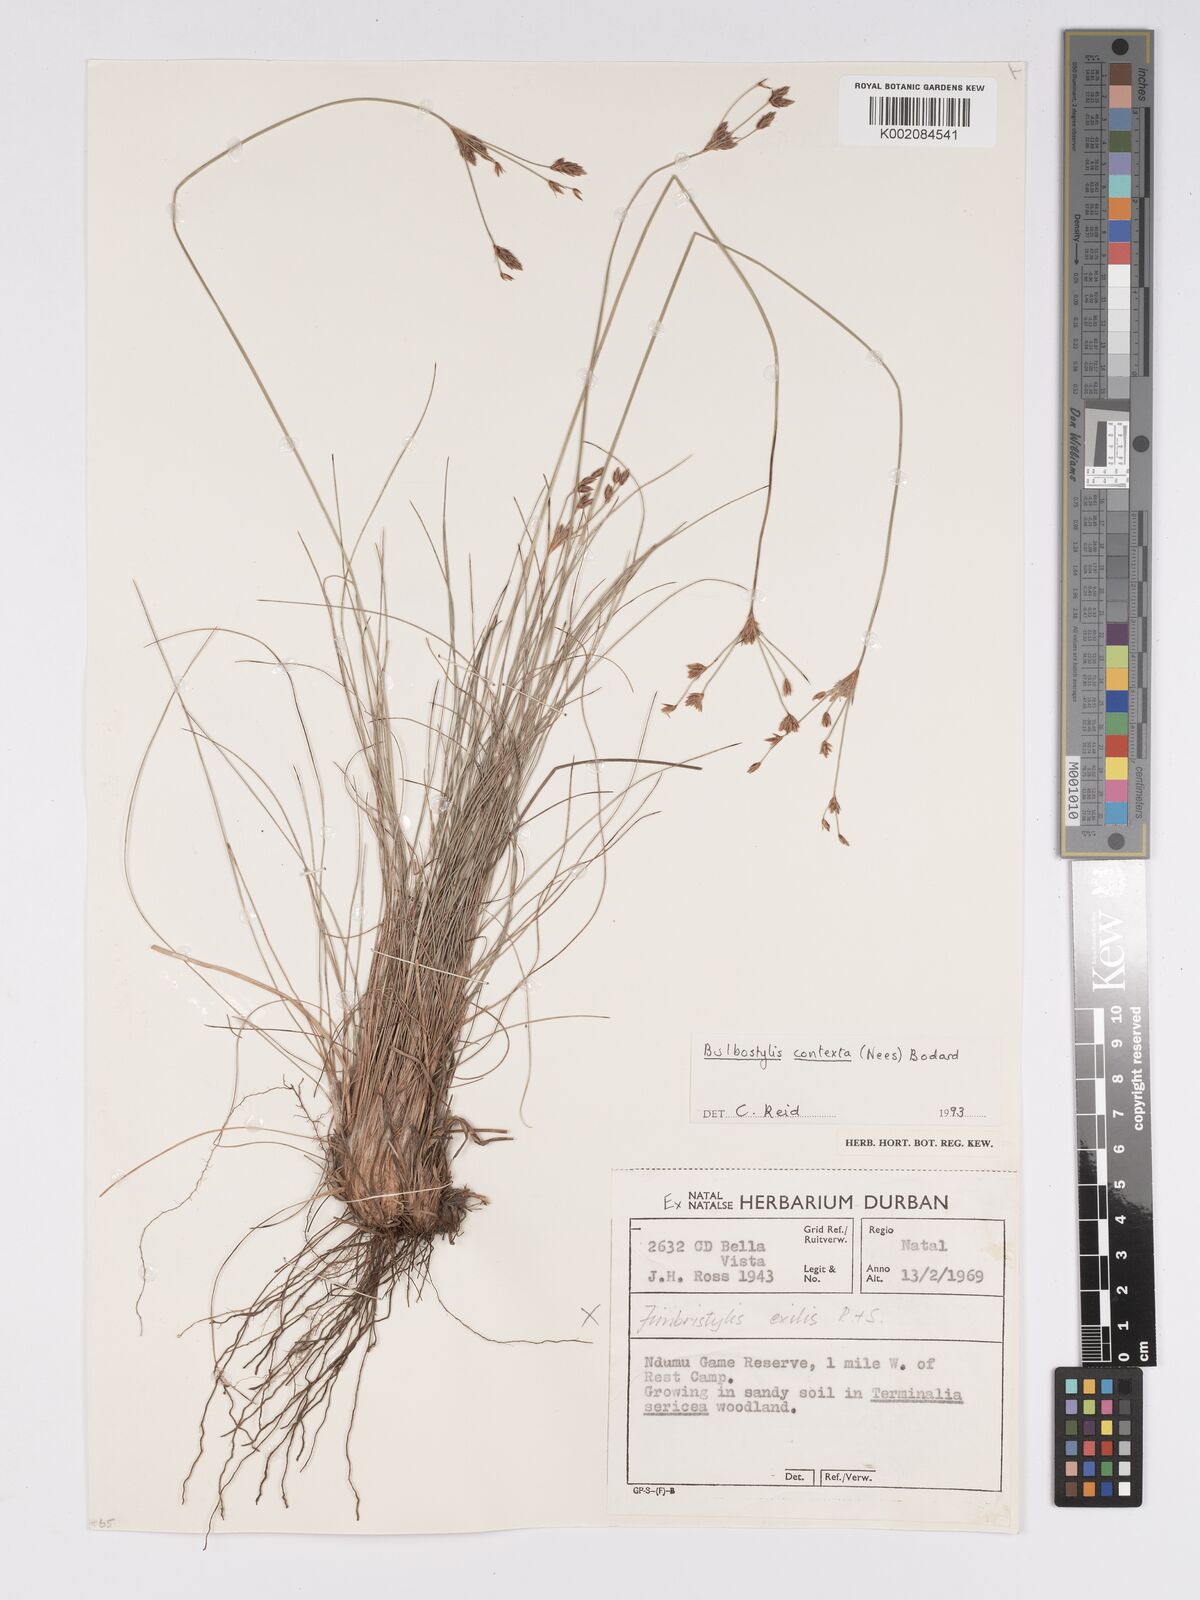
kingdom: Plantae
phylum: Tracheophyta
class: Liliopsida
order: Poales
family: Cyperaceae
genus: Bulbostylis
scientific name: Bulbostylis contexta
